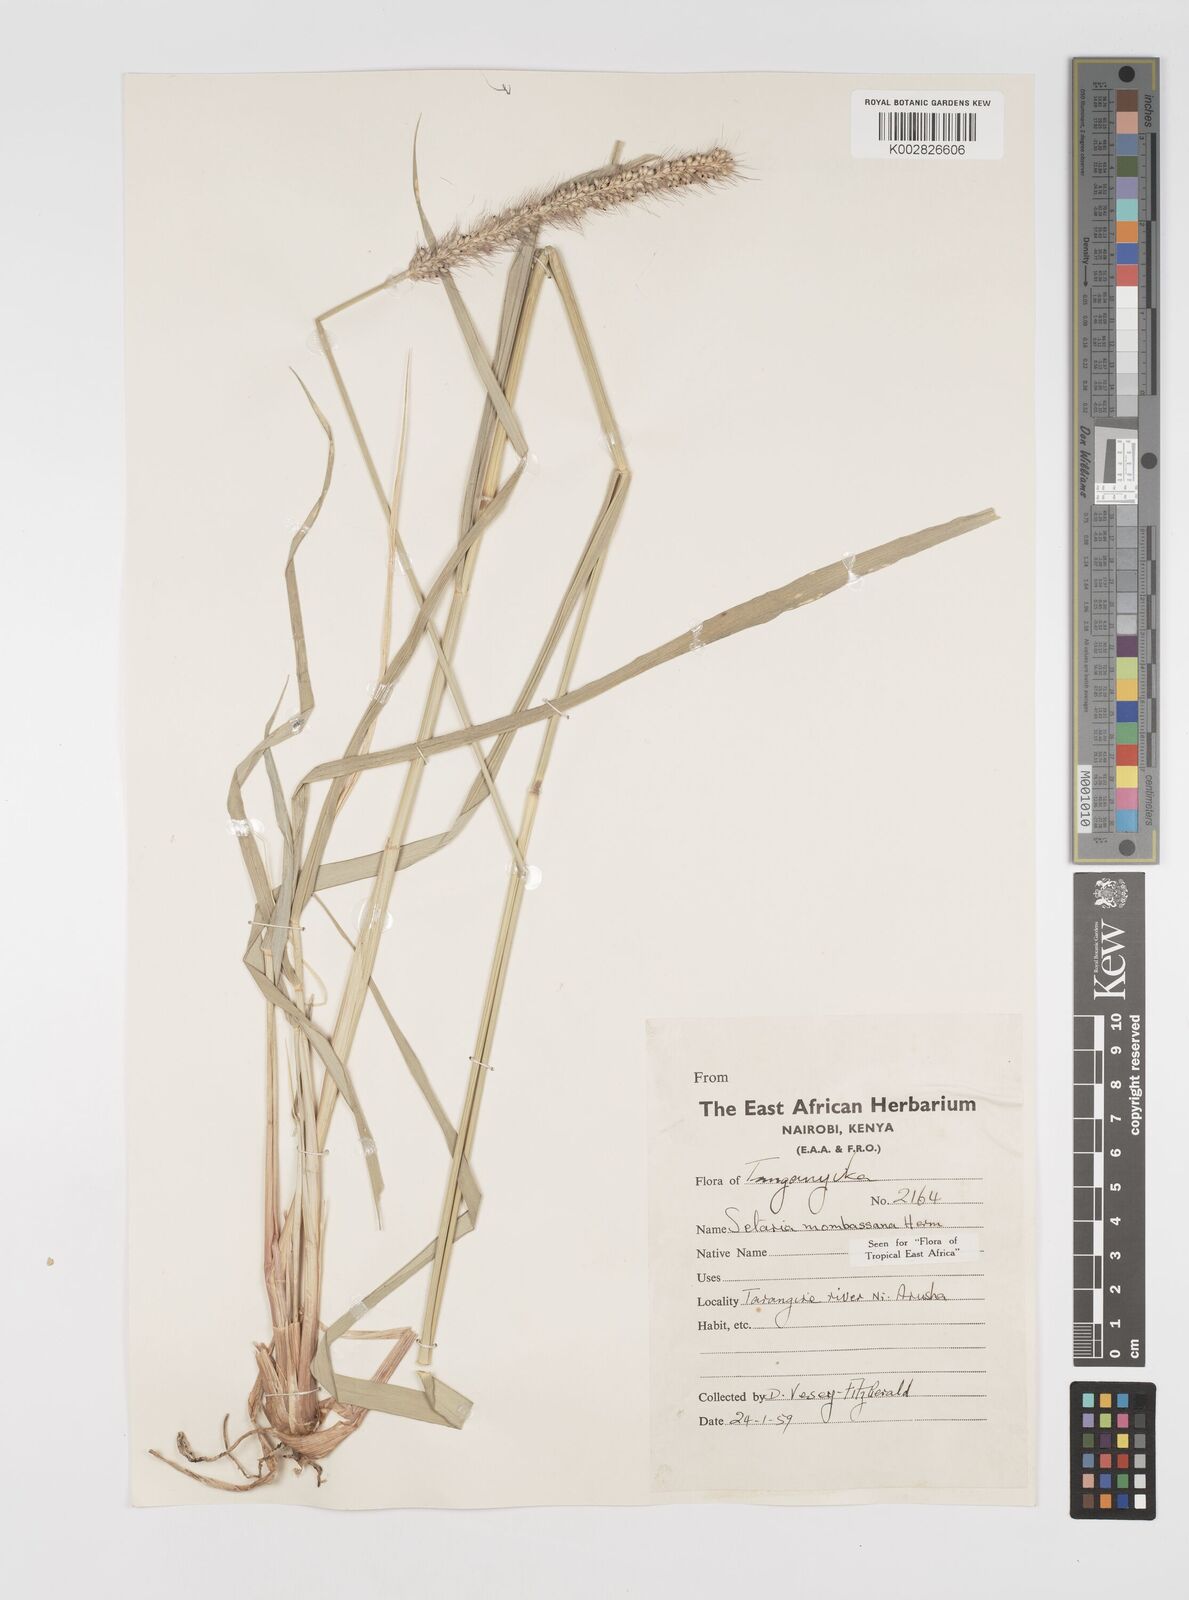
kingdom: Plantae
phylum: Tracheophyta
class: Liliopsida
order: Poales
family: Poaceae
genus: Setaria
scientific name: Setaria incrassata
